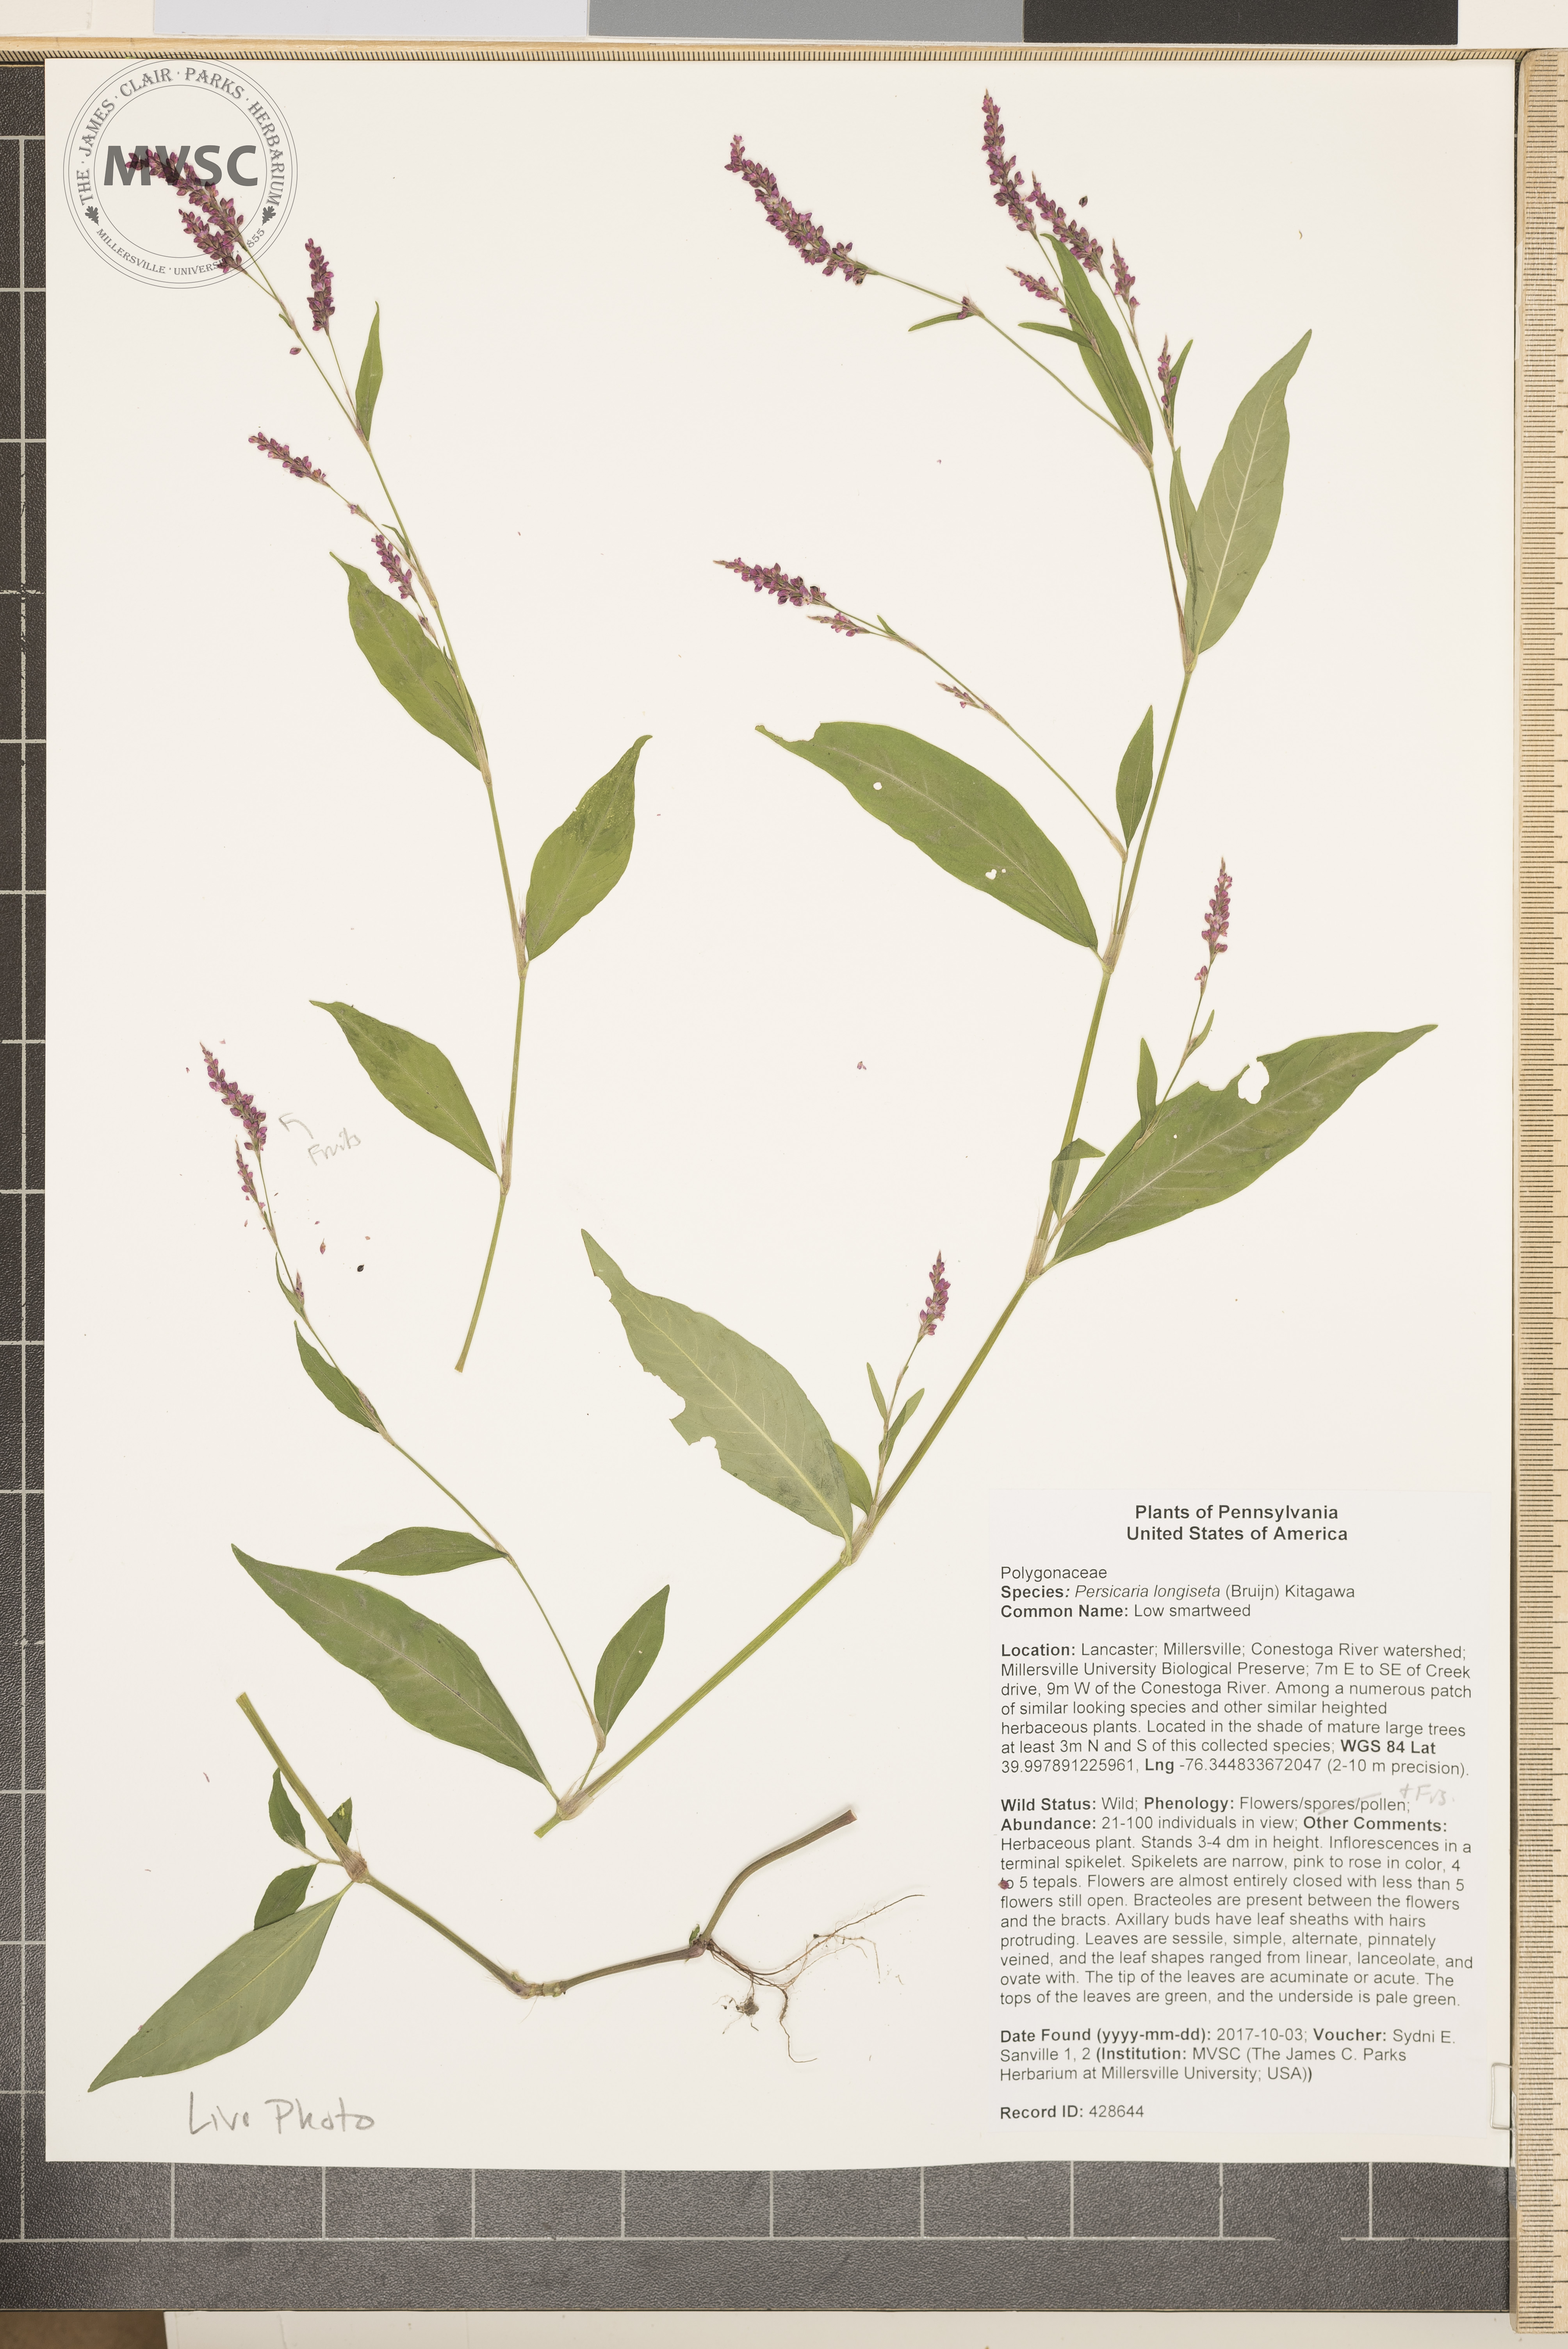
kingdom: Plantae
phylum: Tracheophyta
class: Magnoliopsida
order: Caryophyllales
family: Polygonaceae
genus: Persicaria
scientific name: Persicaria longiseta
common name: Low smartweed
